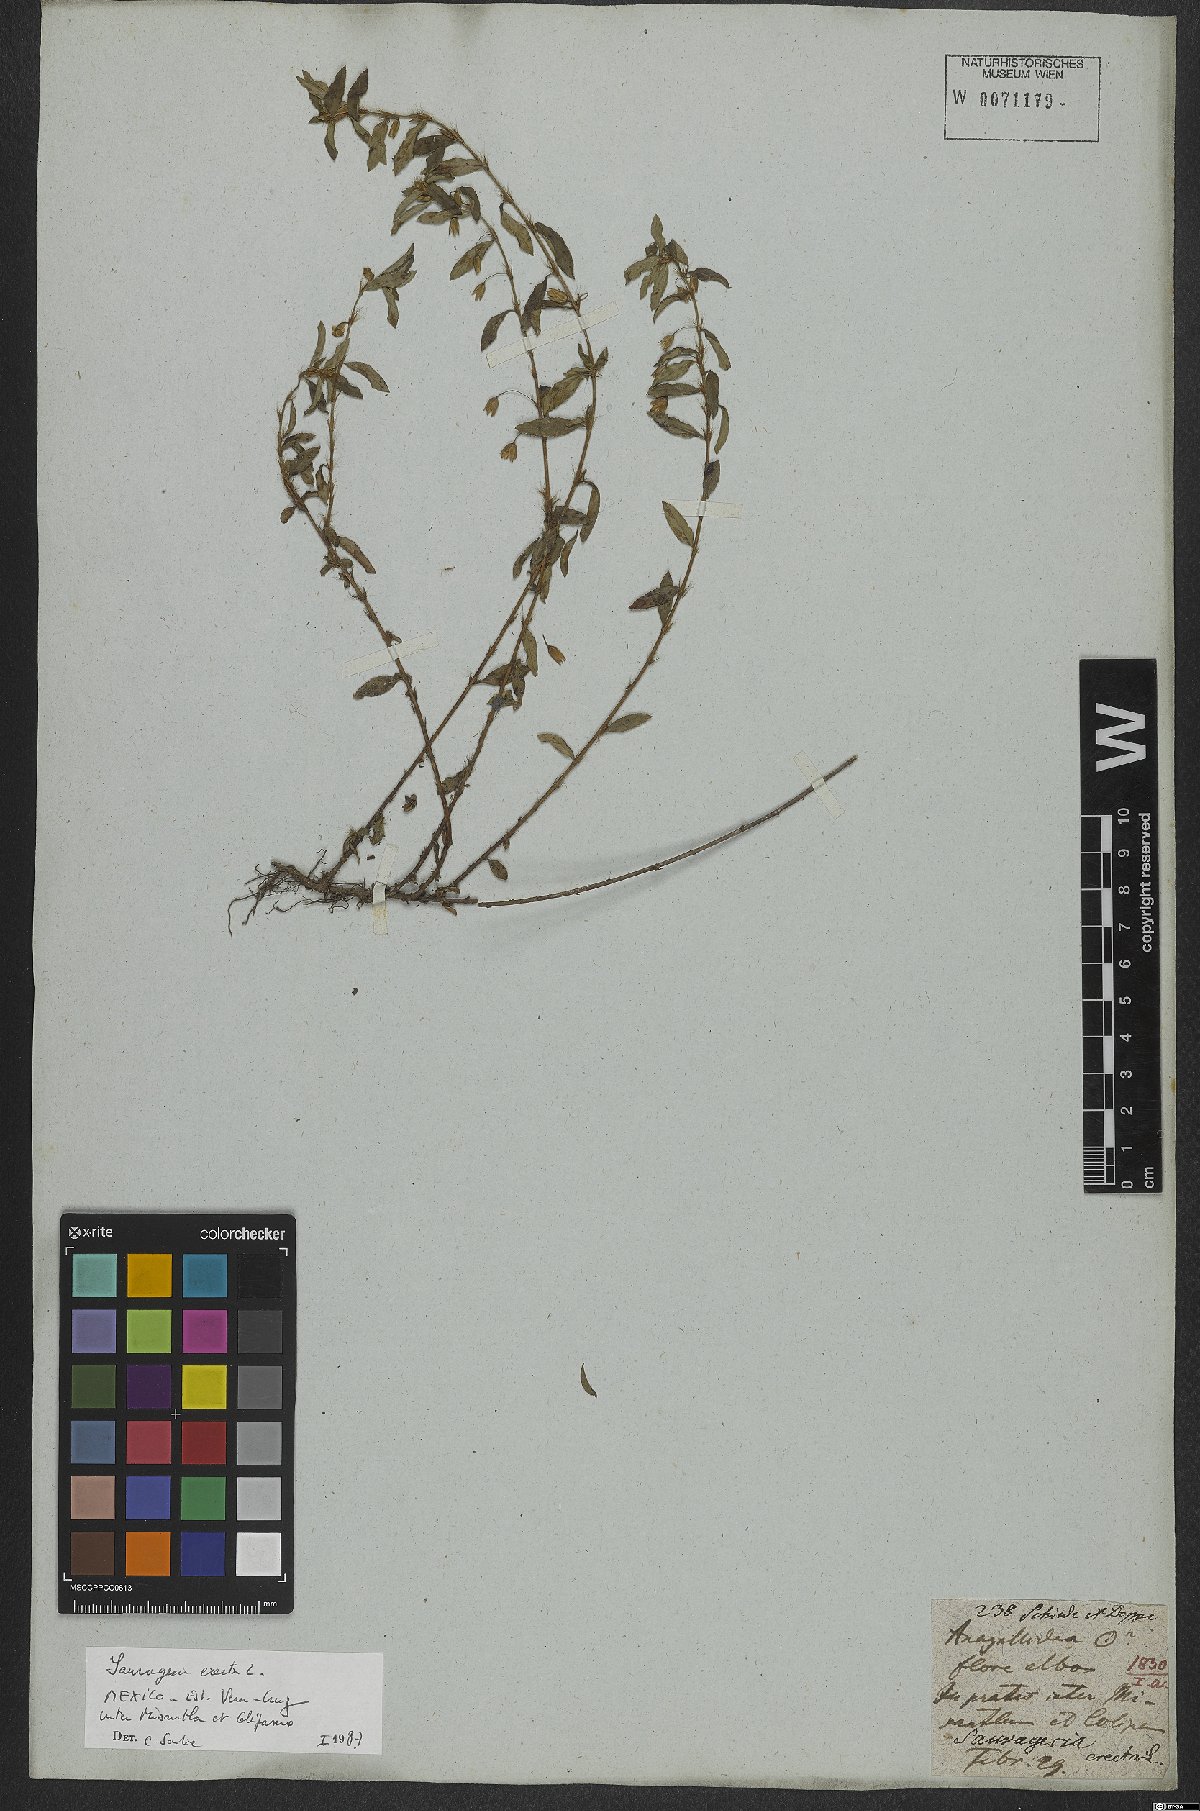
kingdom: Plantae
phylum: Tracheophyta
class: Magnoliopsida
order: Malpighiales
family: Ochnaceae
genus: Sauvagesia
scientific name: Sauvagesia erecta
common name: Creole tea
